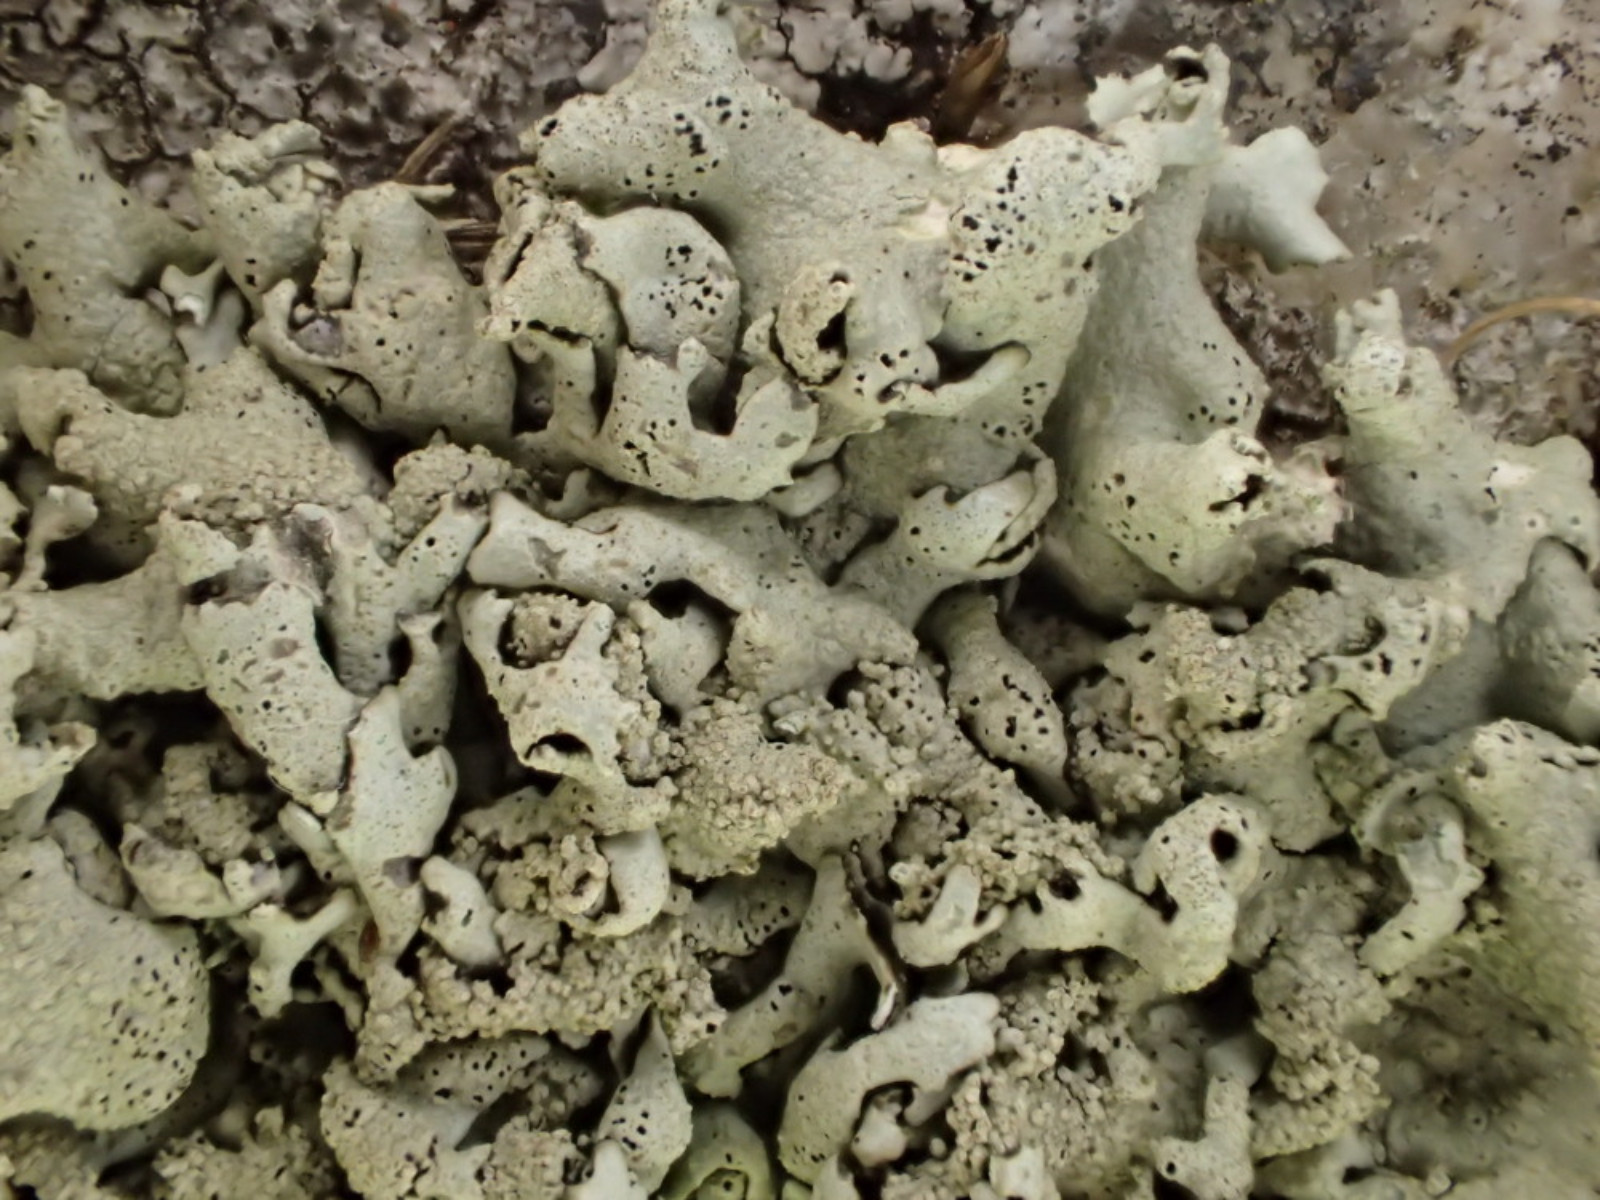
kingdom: Fungi
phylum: Ascomycota
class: Lecanoromycetes
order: Lecanorales
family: Parmeliaceae
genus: Xanthoparmelia
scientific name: Xanthoparmelia conspersa
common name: messing-skållav
